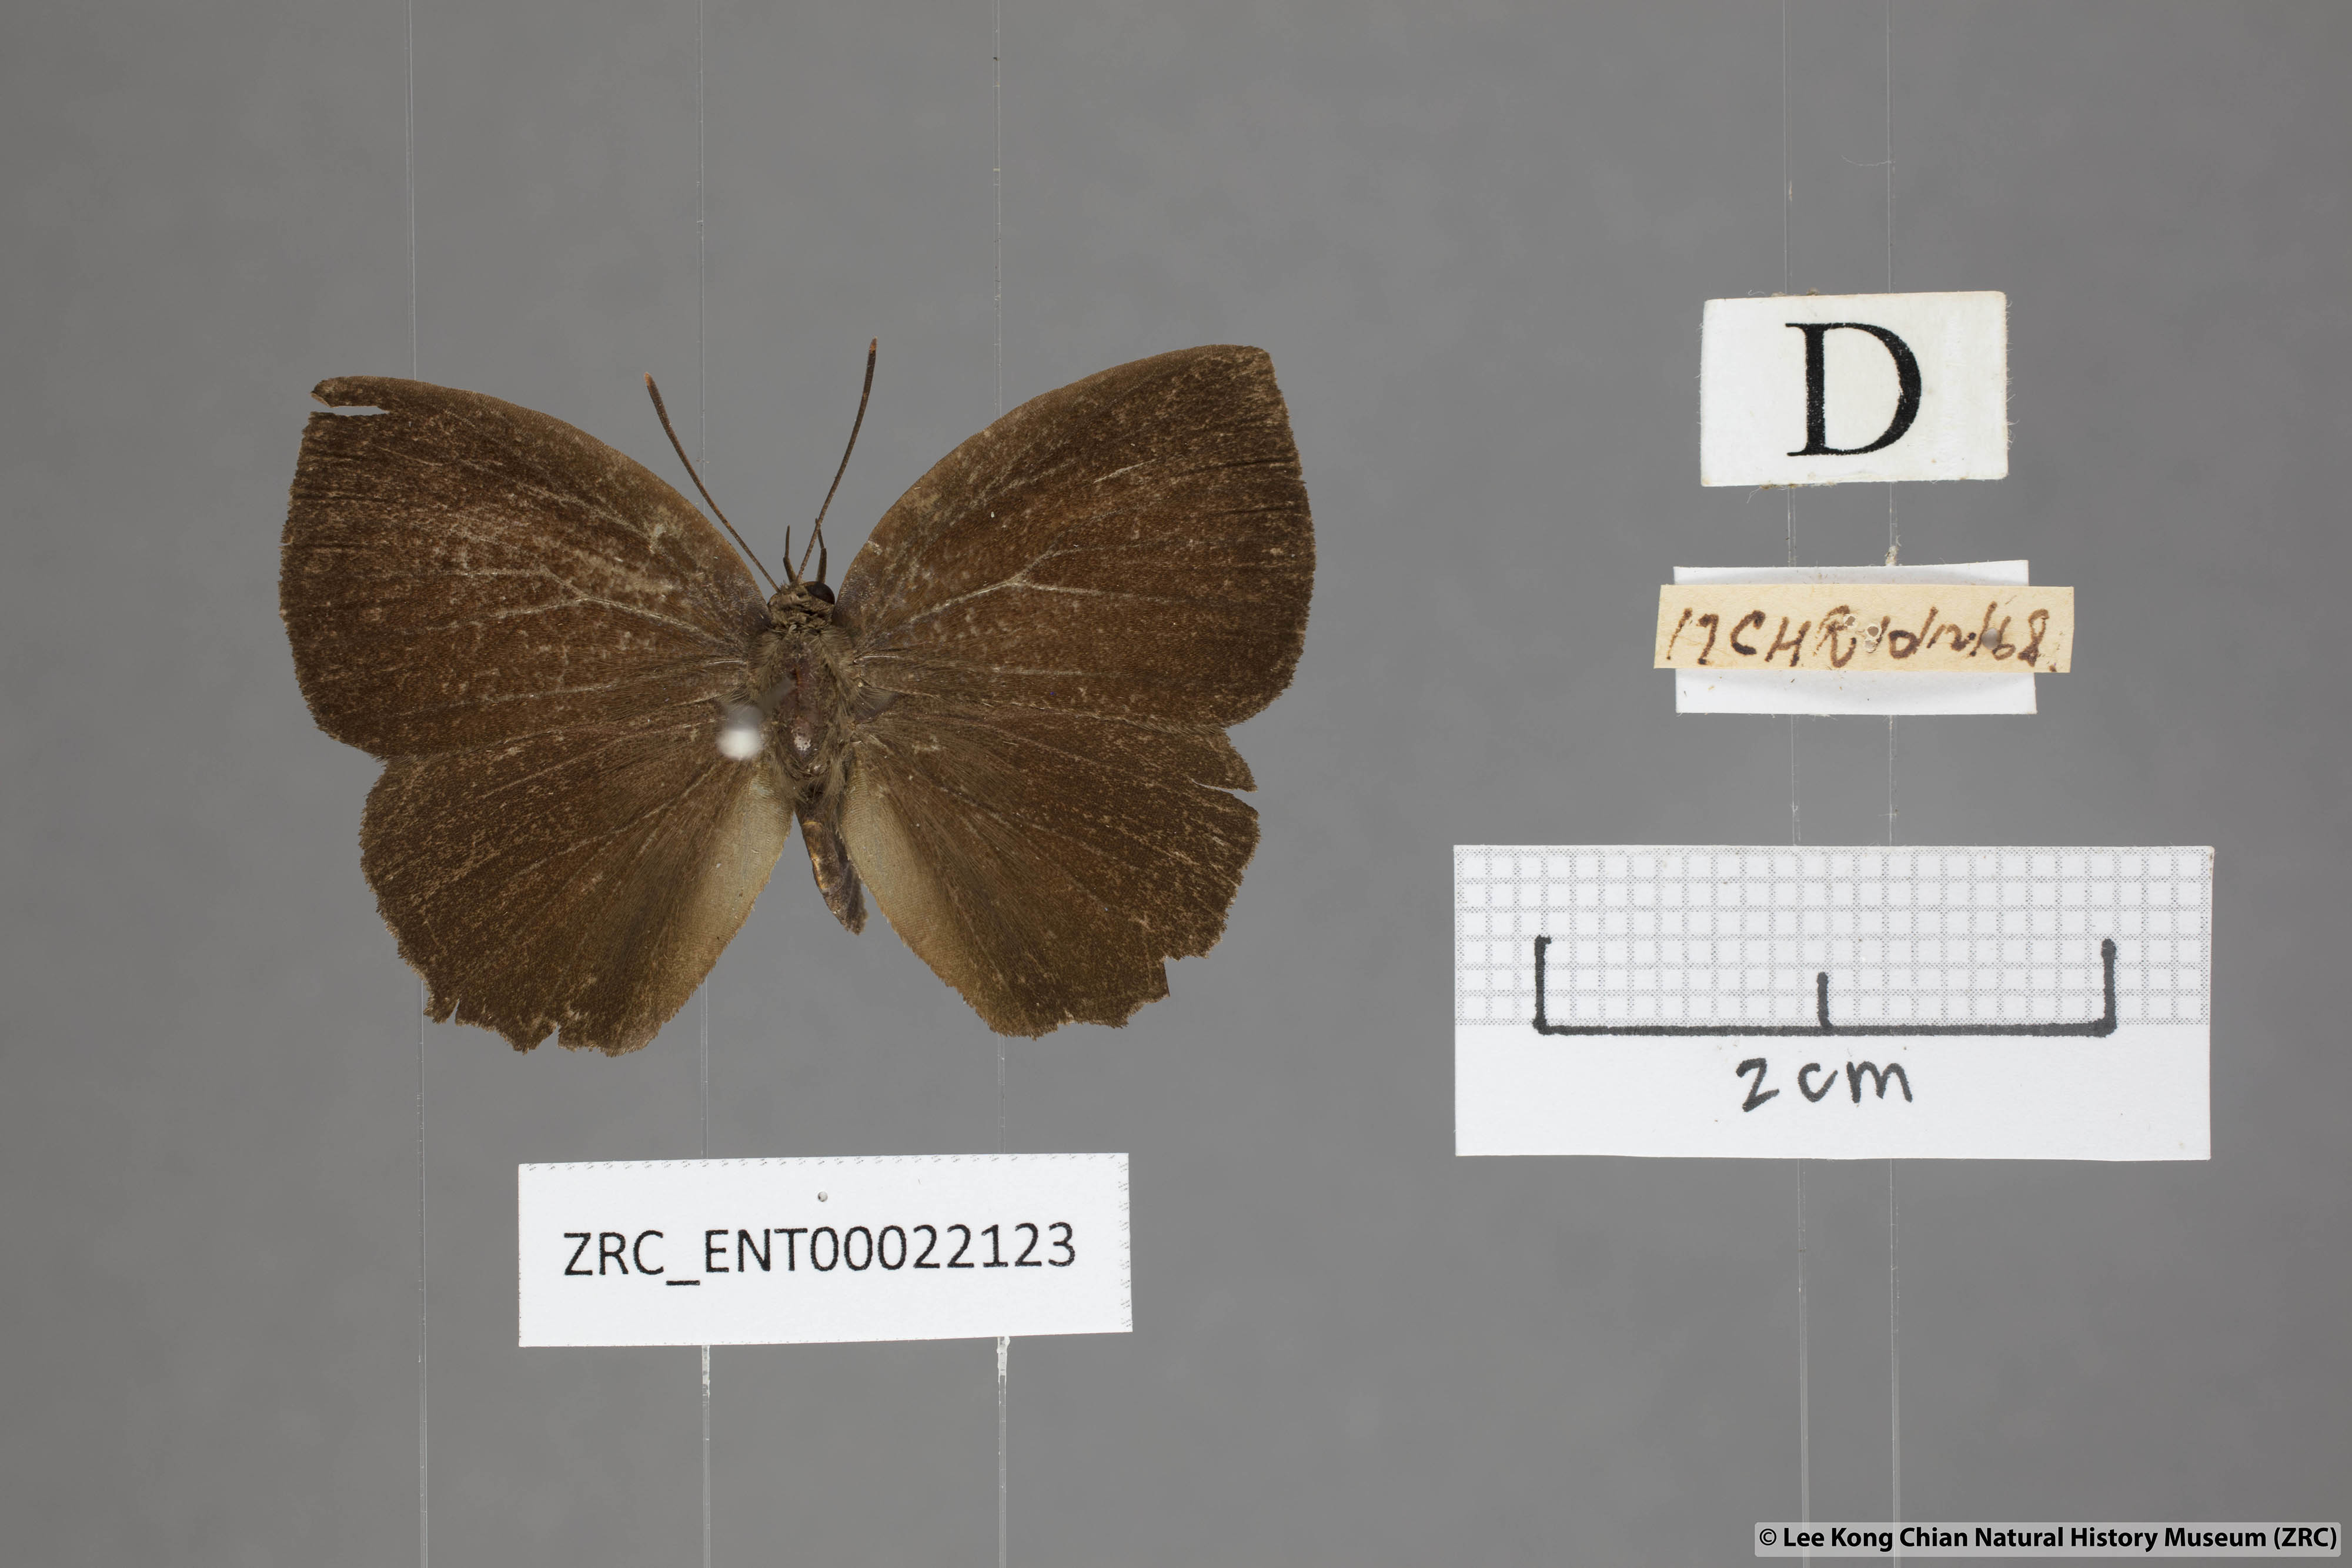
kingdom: Animalia
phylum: Arthropoda
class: Insecta
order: Lepidoptera
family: Lycaenidae
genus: Surendra
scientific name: Surendra florimel
